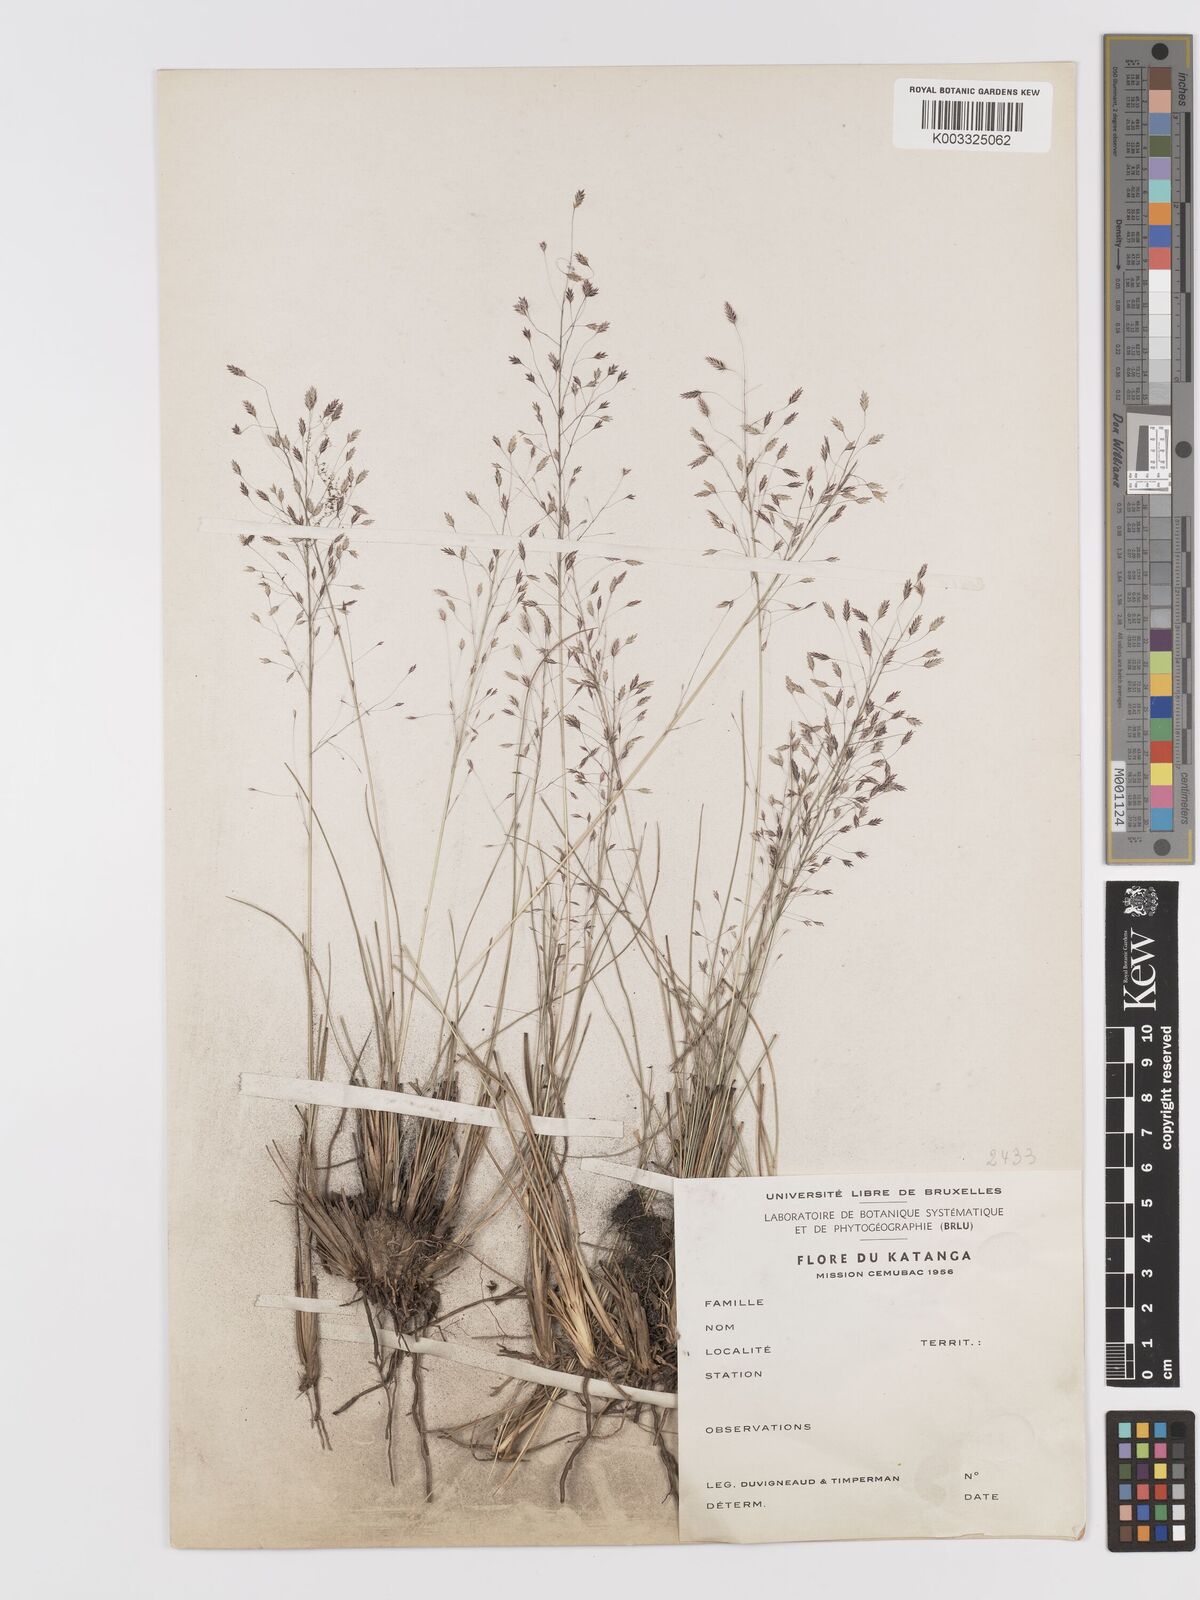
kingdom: Plantae
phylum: Tracheophyta
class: Liliopsida
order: Poales
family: Poaceae
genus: Eragrostis
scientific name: Eragrostis
